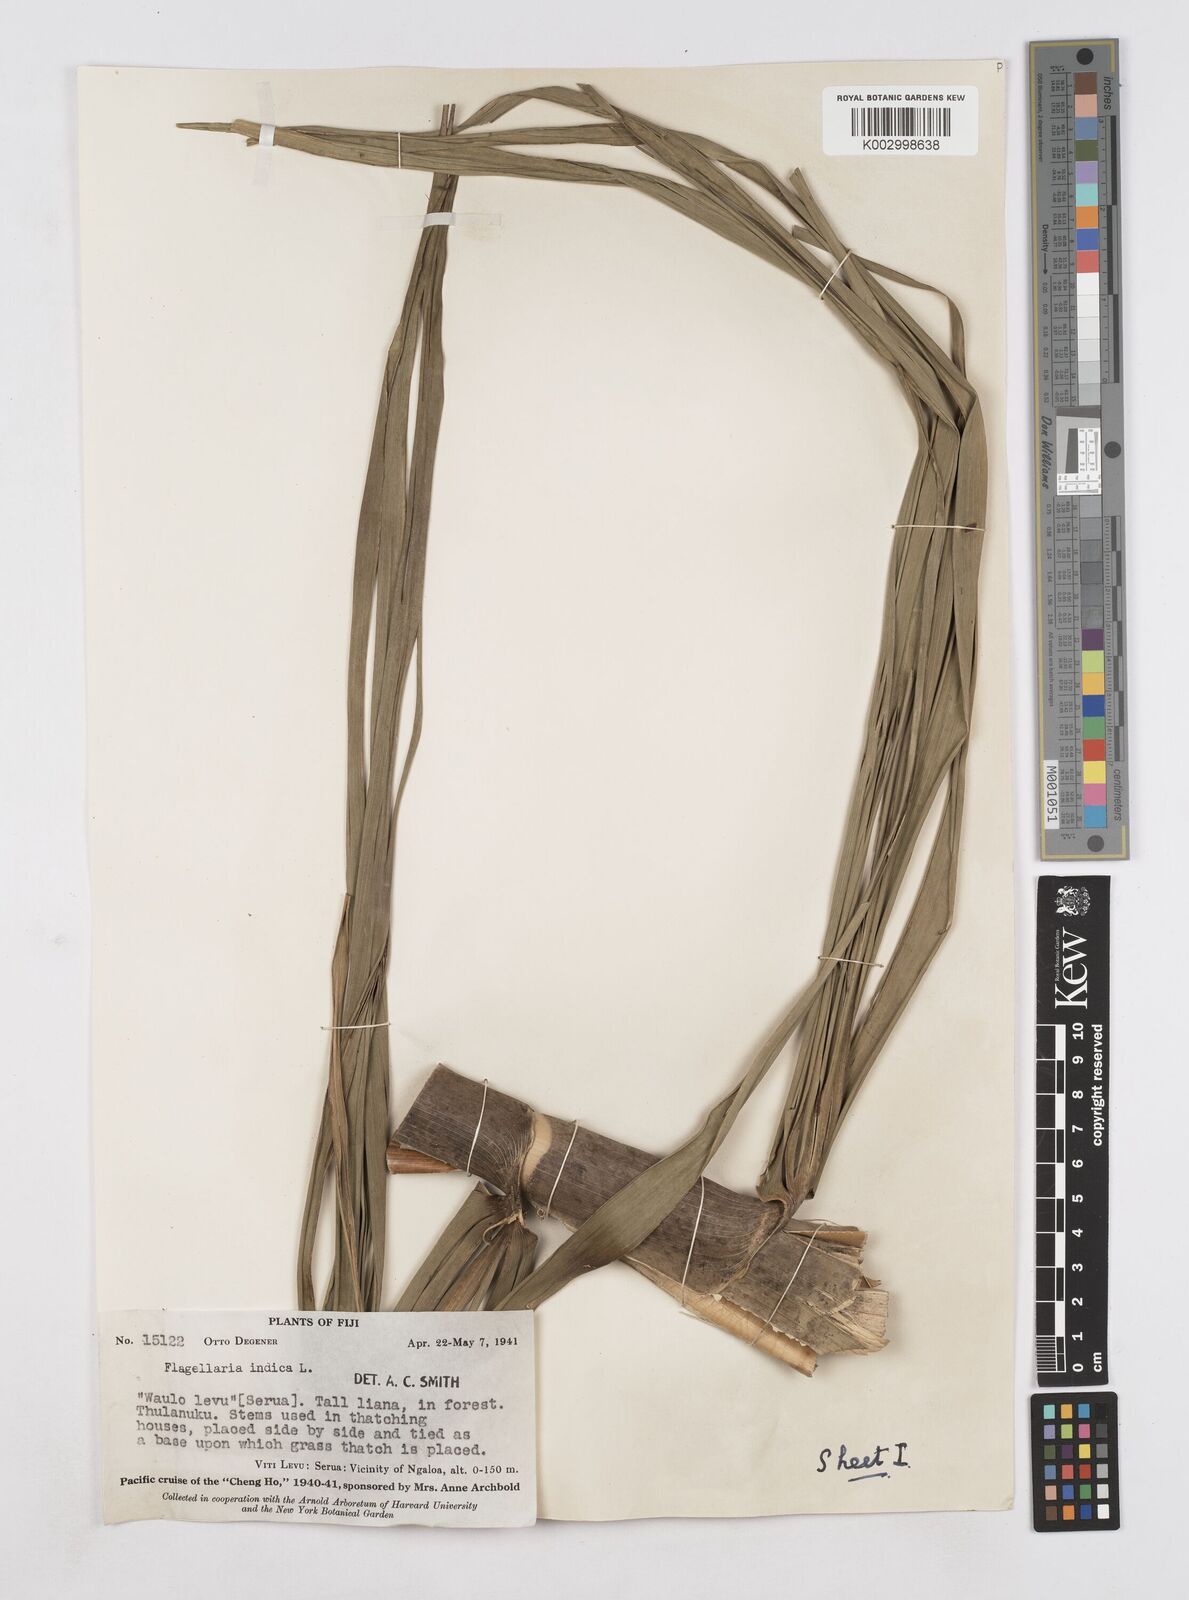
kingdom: Plantae
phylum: Tracheophyta
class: Liliopsida
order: Poales
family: Flagellariaceae
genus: Flagellaria
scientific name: Flagellaria gigantea
